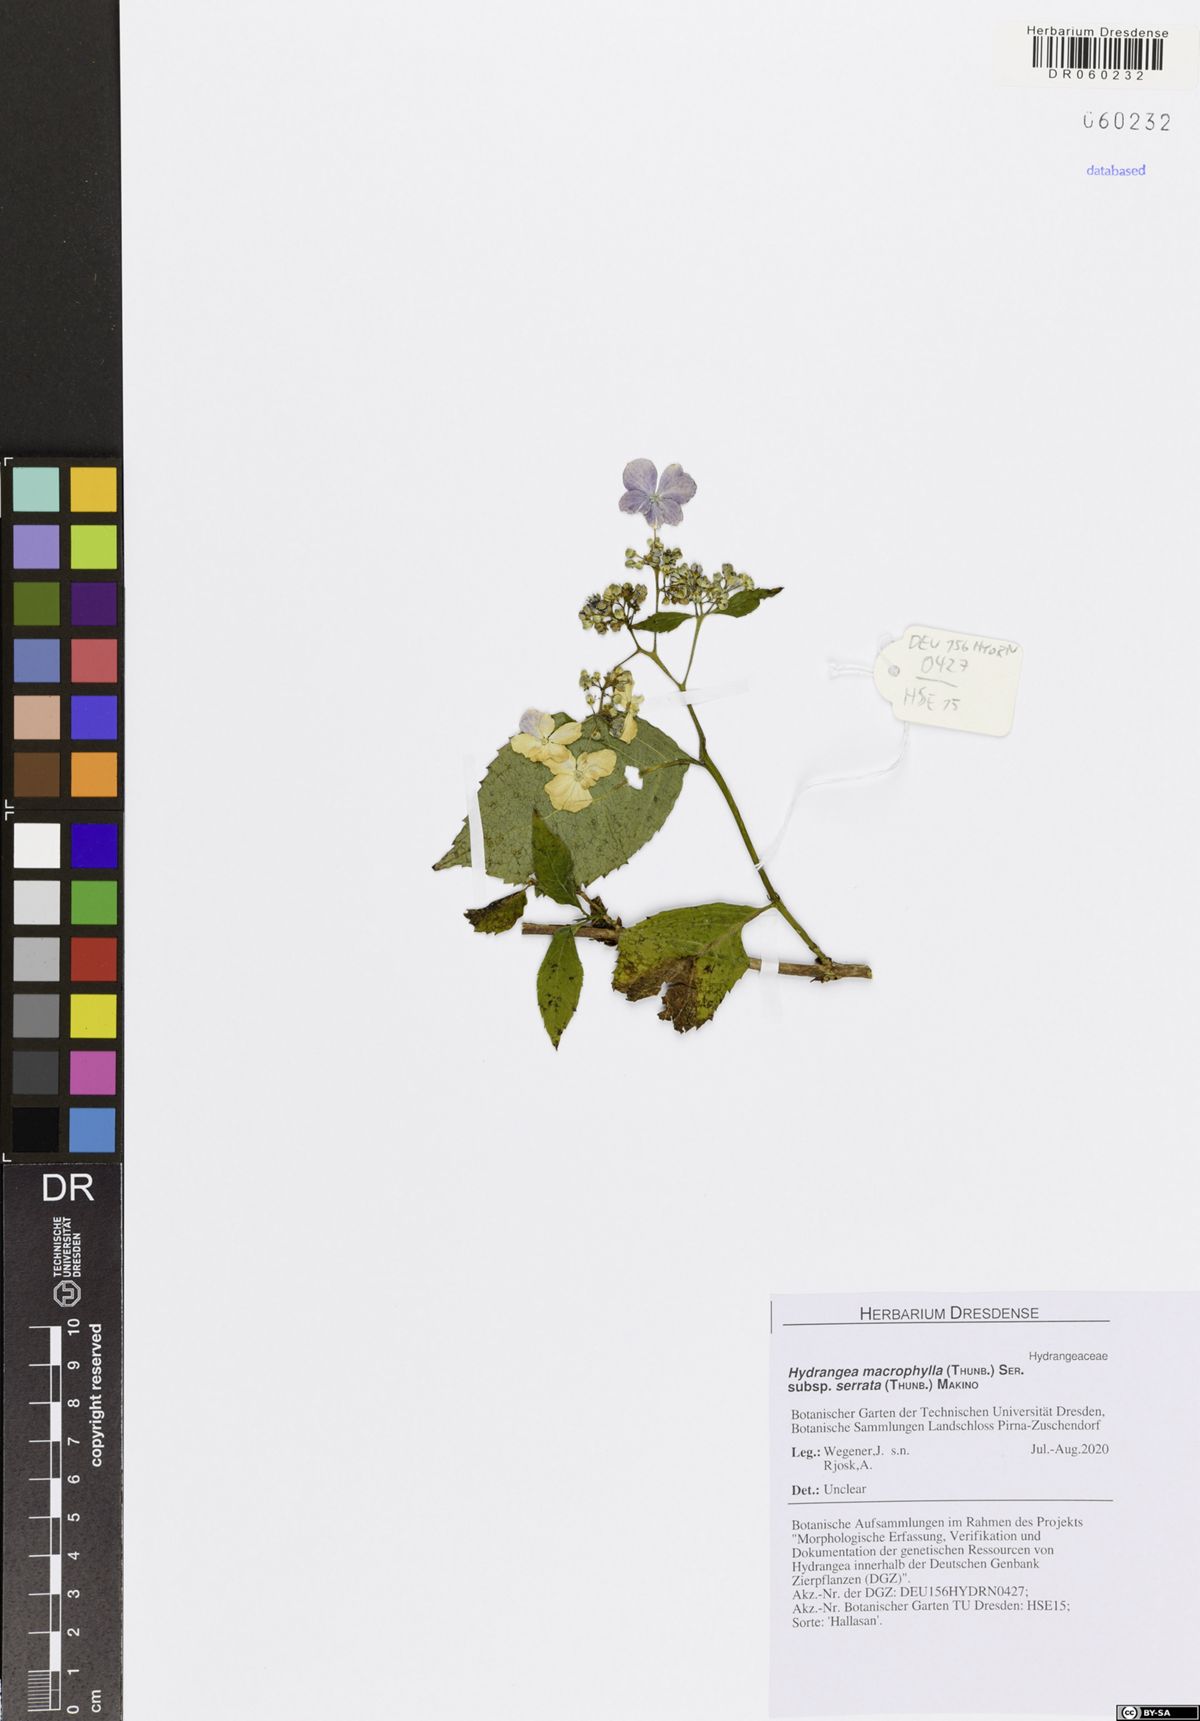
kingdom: Plantae
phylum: Tracheophyta
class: Magnoliopsida
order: Cornales
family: Hydrangeaceae
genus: Hydrangea
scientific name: Hydrangea serrata
